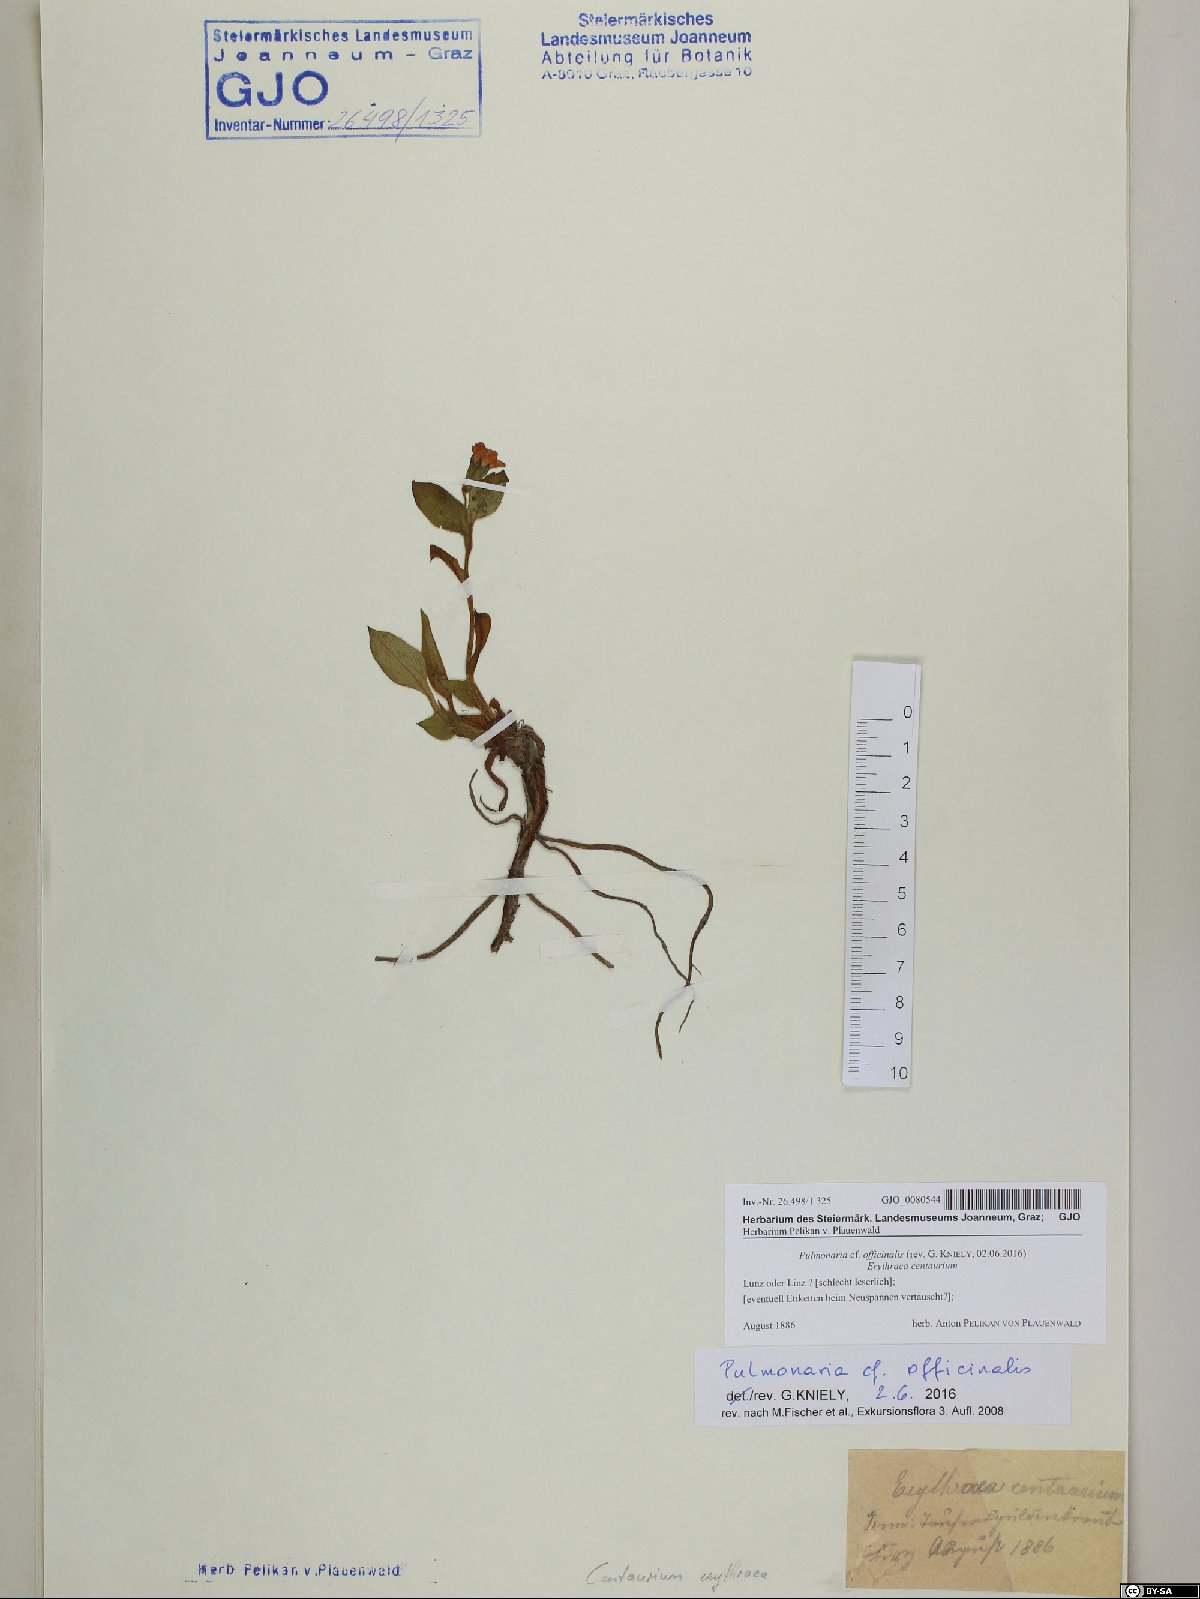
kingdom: Plantae
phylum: Tracheophyta
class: Magnoliopsida
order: Boraginales
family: Boraginaceae
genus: Pulmonaria
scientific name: Pulmonaria officinalis
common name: Lungwort
